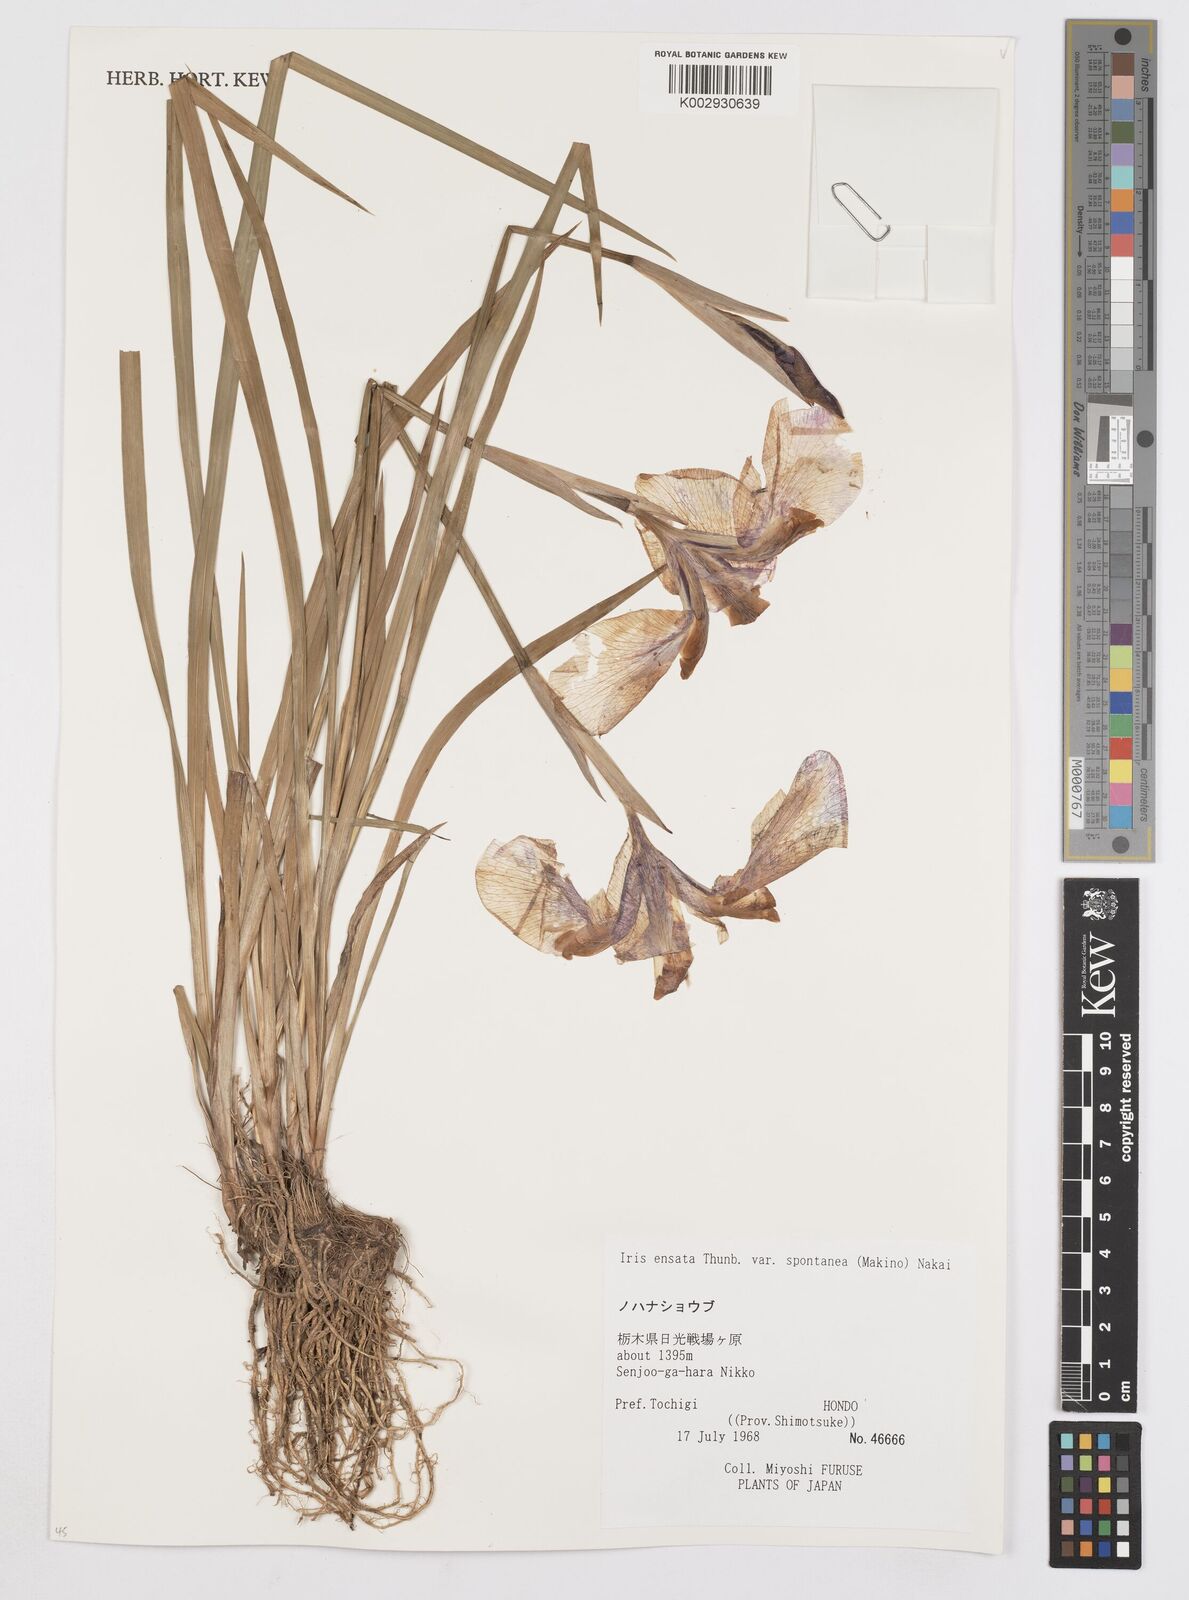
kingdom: Plantae
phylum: Tracheophyta
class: Liliopsida
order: Asparagales
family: Iridaceae
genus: Iris
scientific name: Iris ensata
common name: Beaked iris
